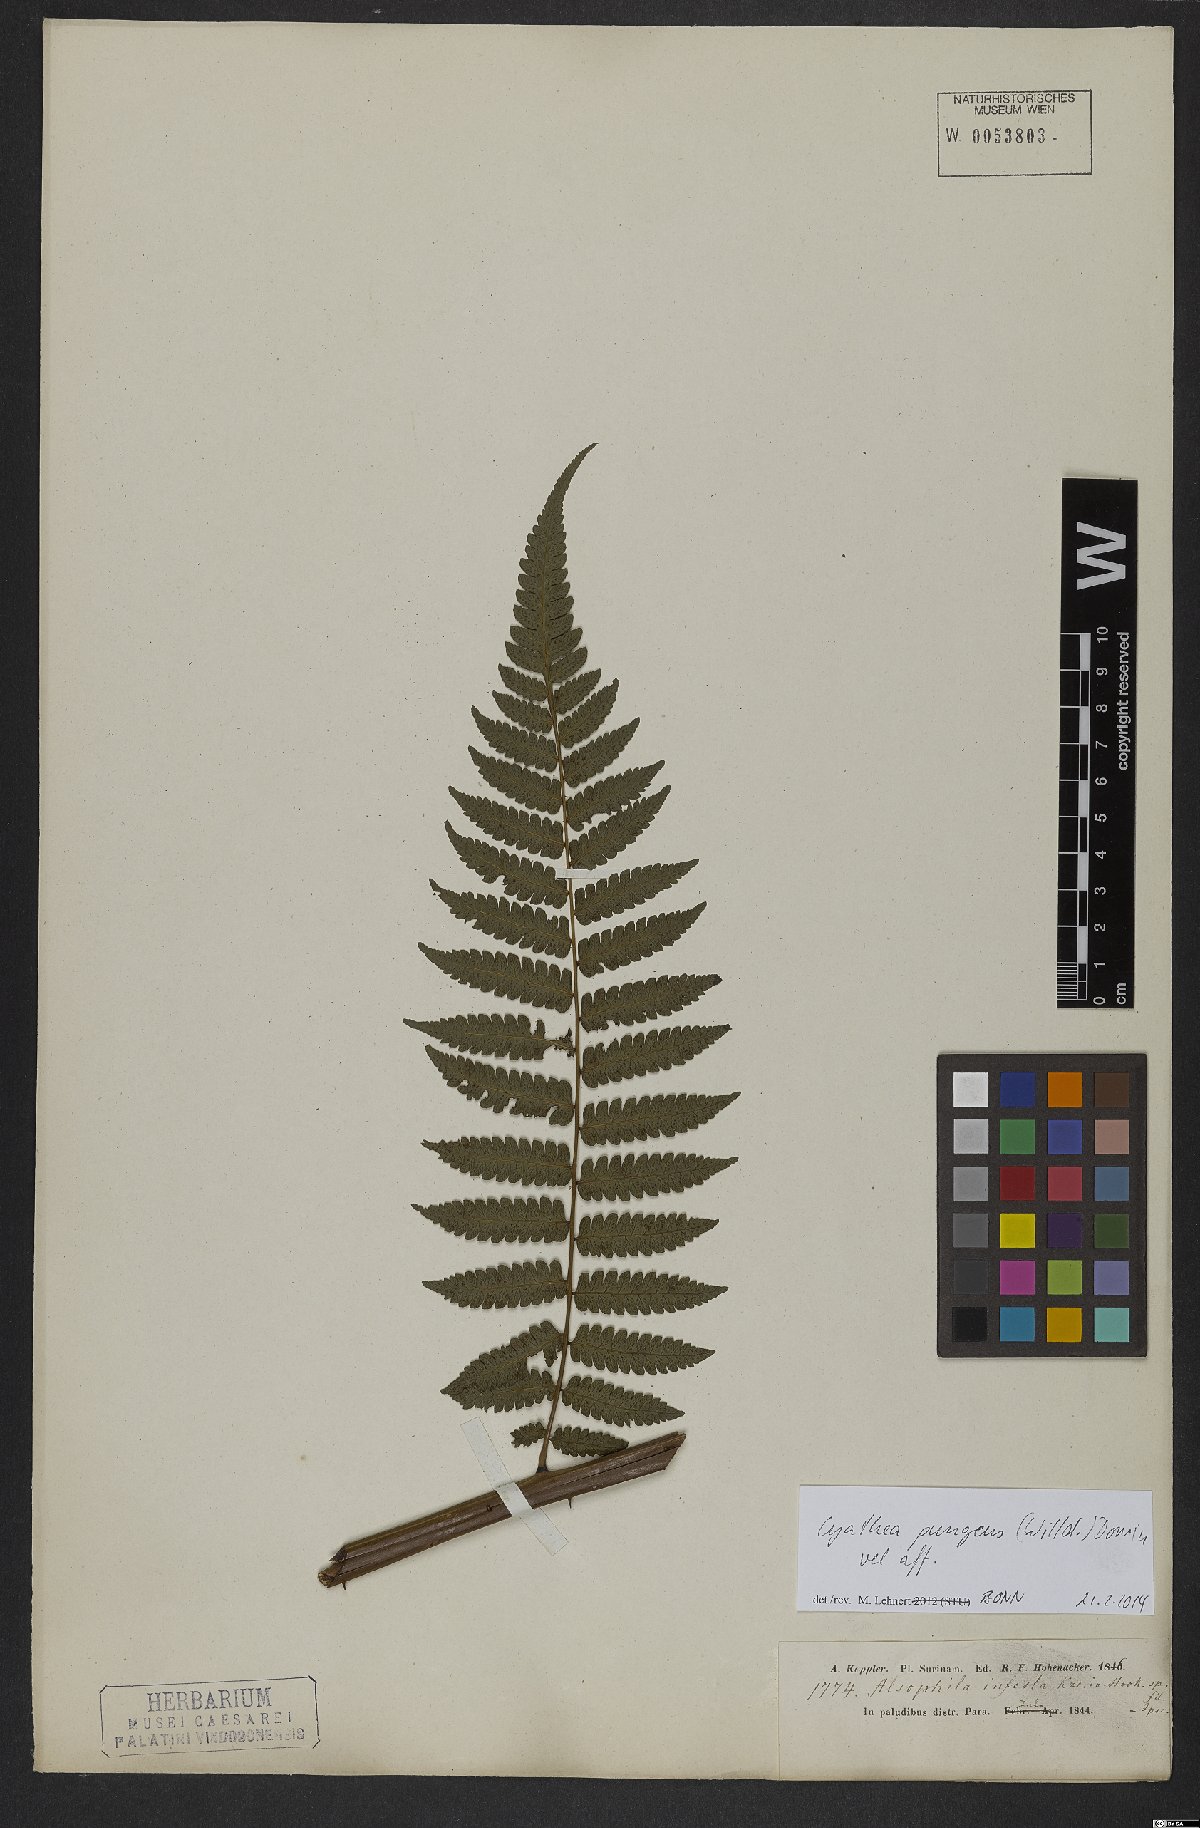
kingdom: Plantae
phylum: Tracheophyta
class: Polypodiopsida
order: Cyatheales
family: Cyatheaceae
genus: Cyathea
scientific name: Cyathea pungens
